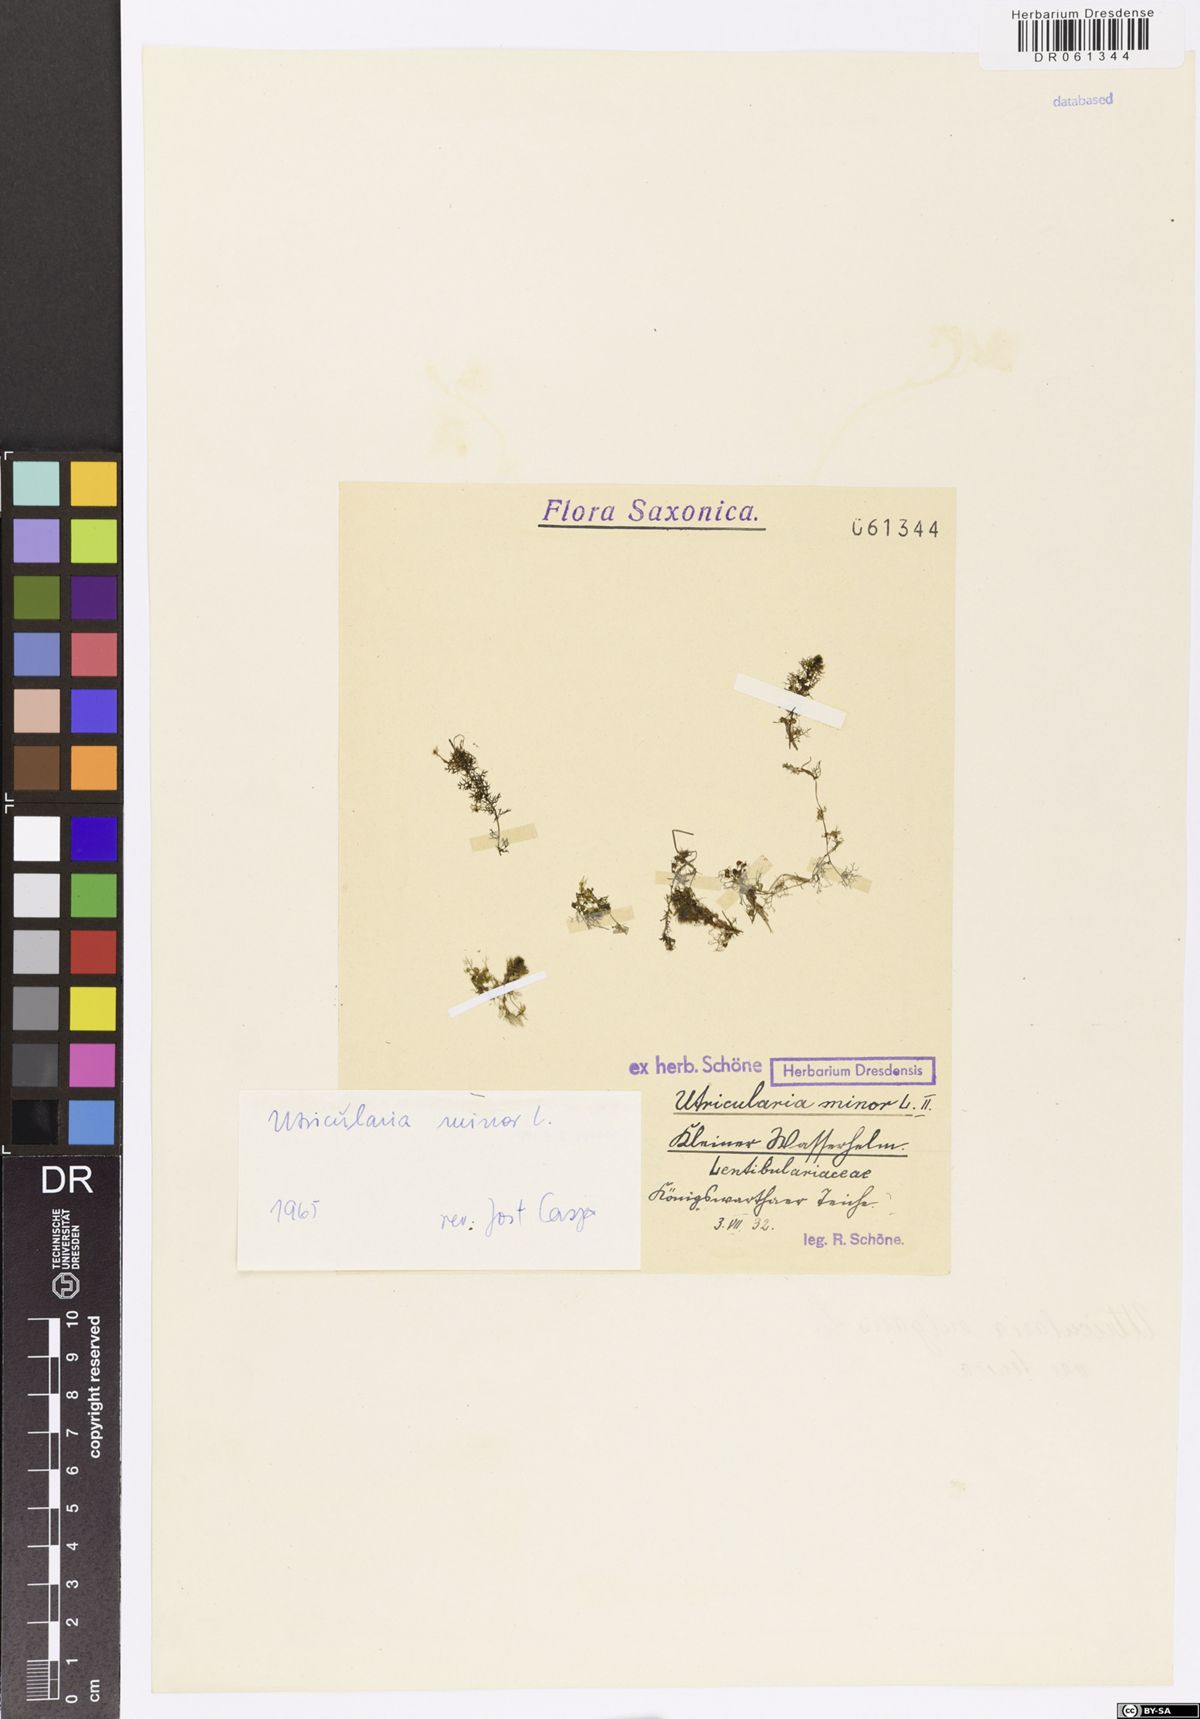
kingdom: Plantae
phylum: Tracheophyta
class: Magnoliopsida
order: Lamiales
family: Lentibulariaceae
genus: Utricularia
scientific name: Utricularia minor
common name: Lesser bladderwort
